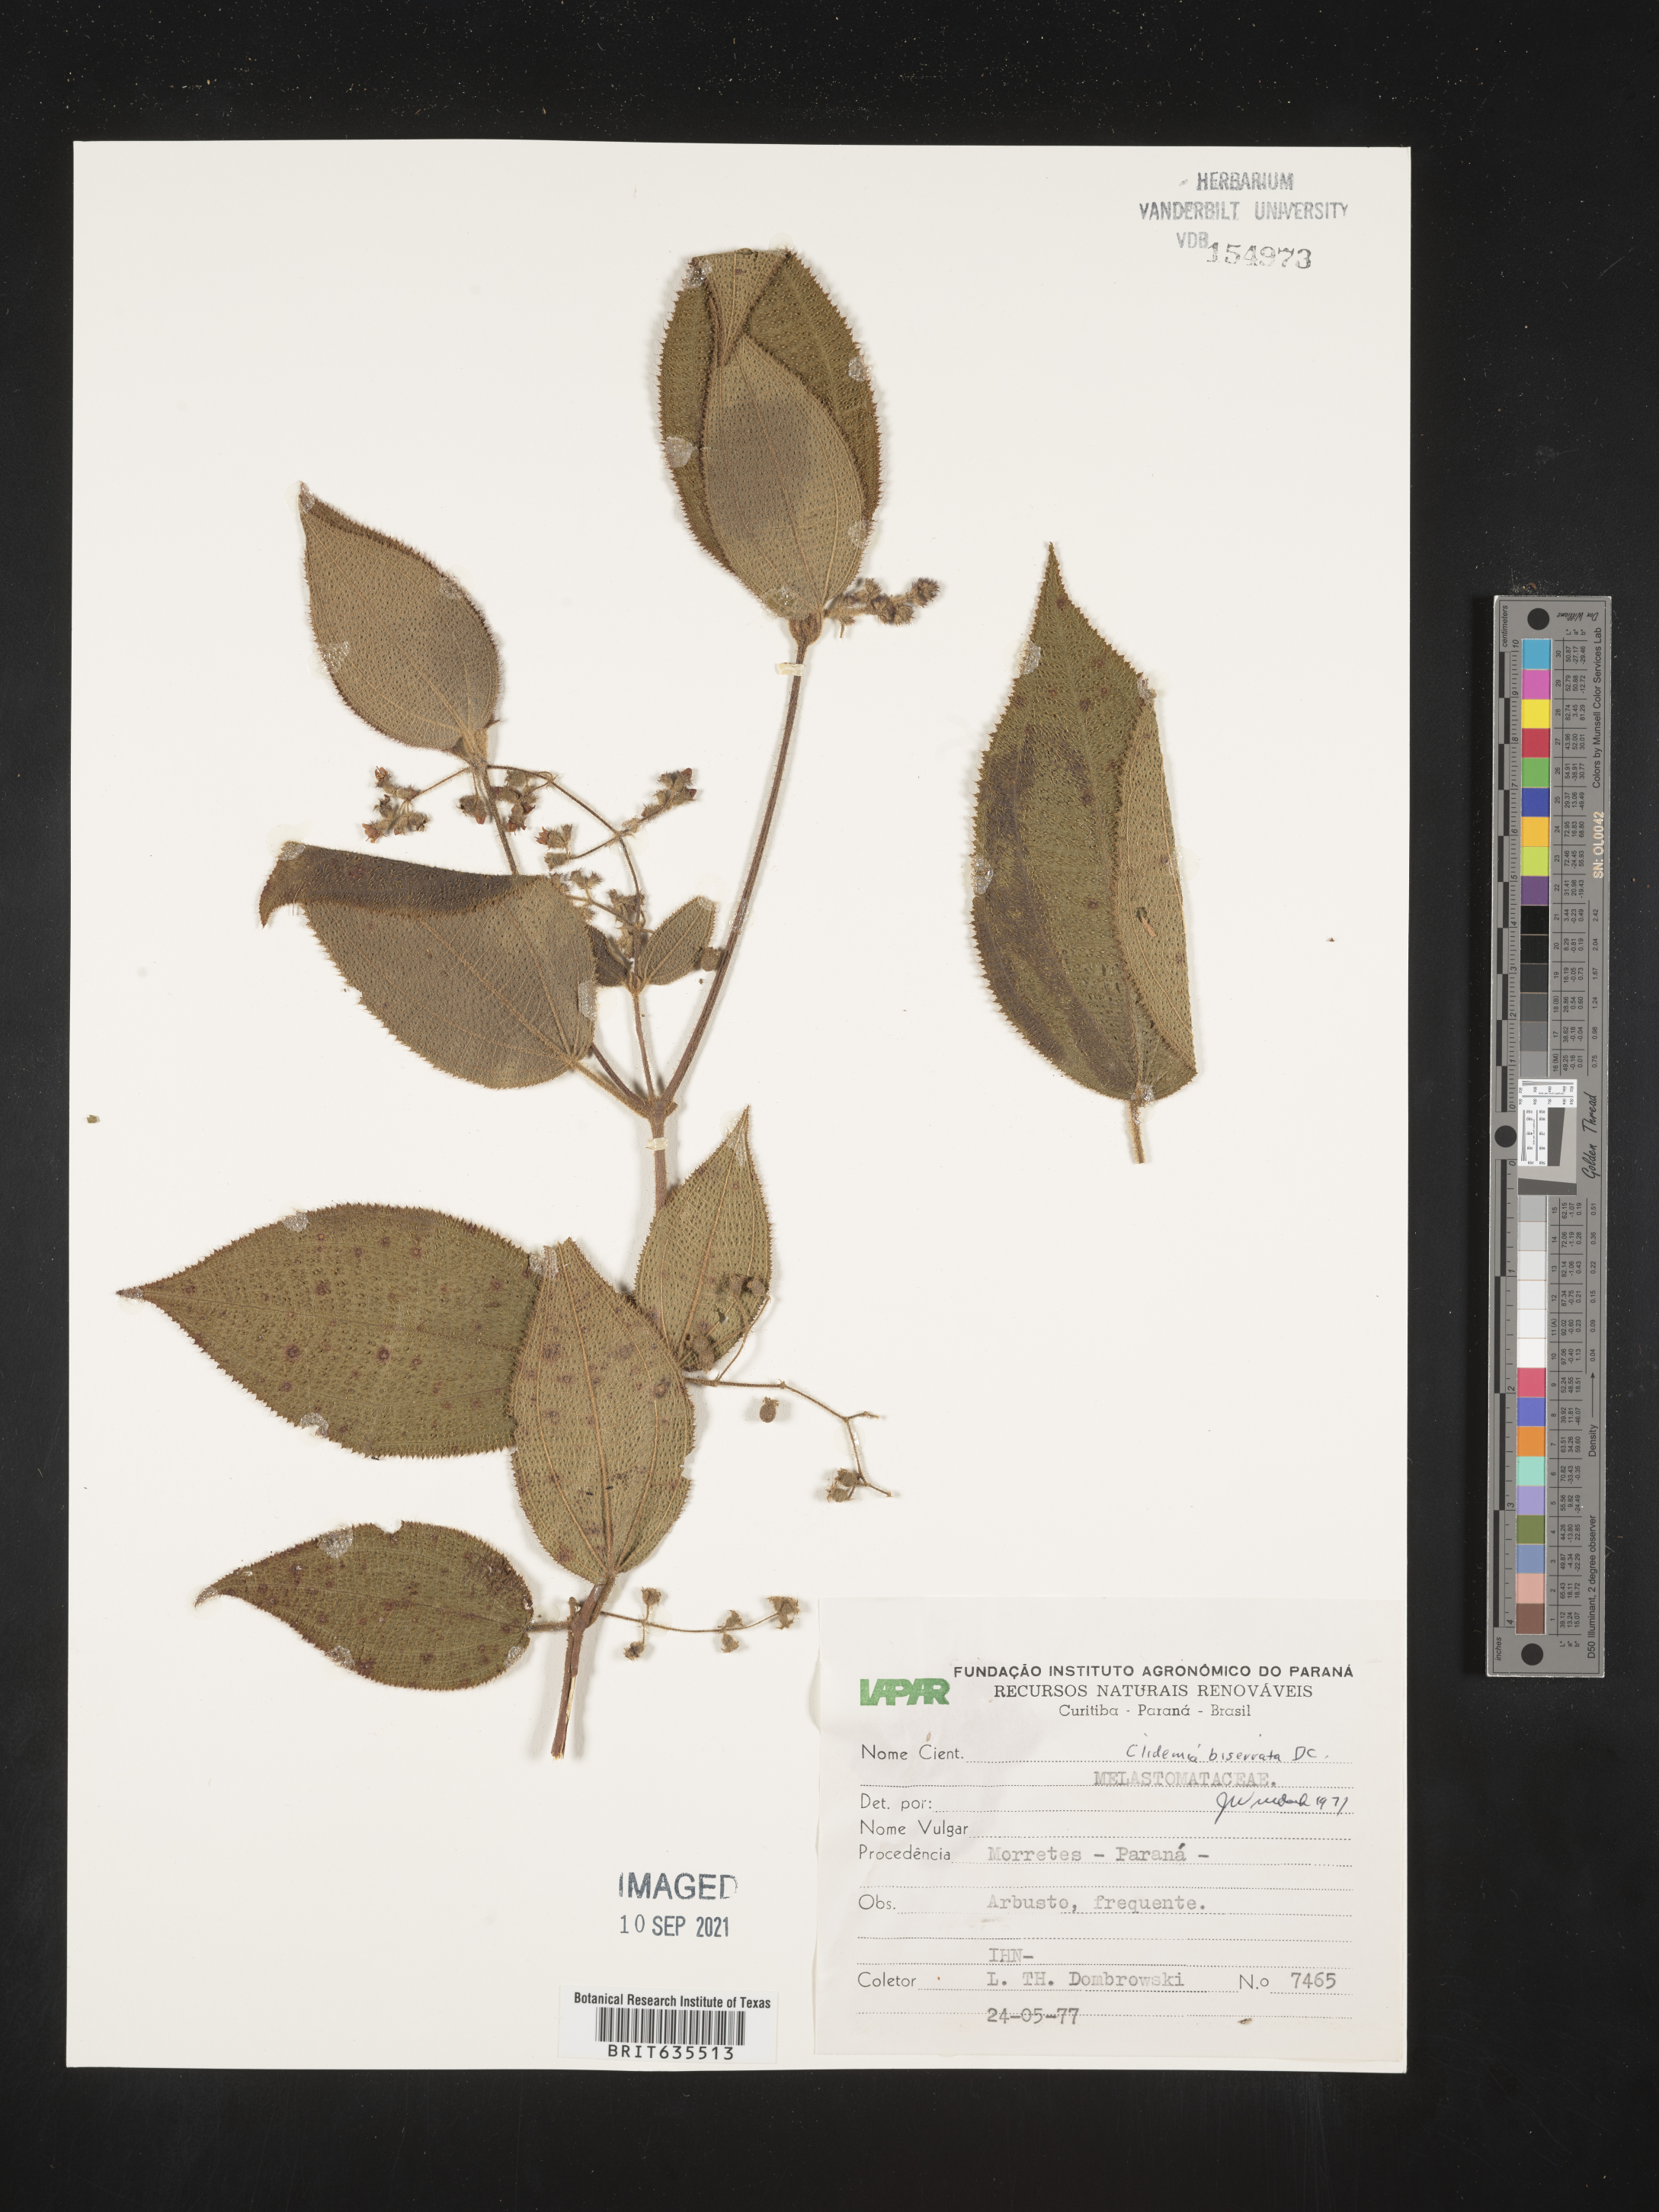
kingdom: Plantae
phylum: Tracheophyta
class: Magnoliopsida
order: Myrtales
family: Melastomataceae
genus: Miconia
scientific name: Miconia
